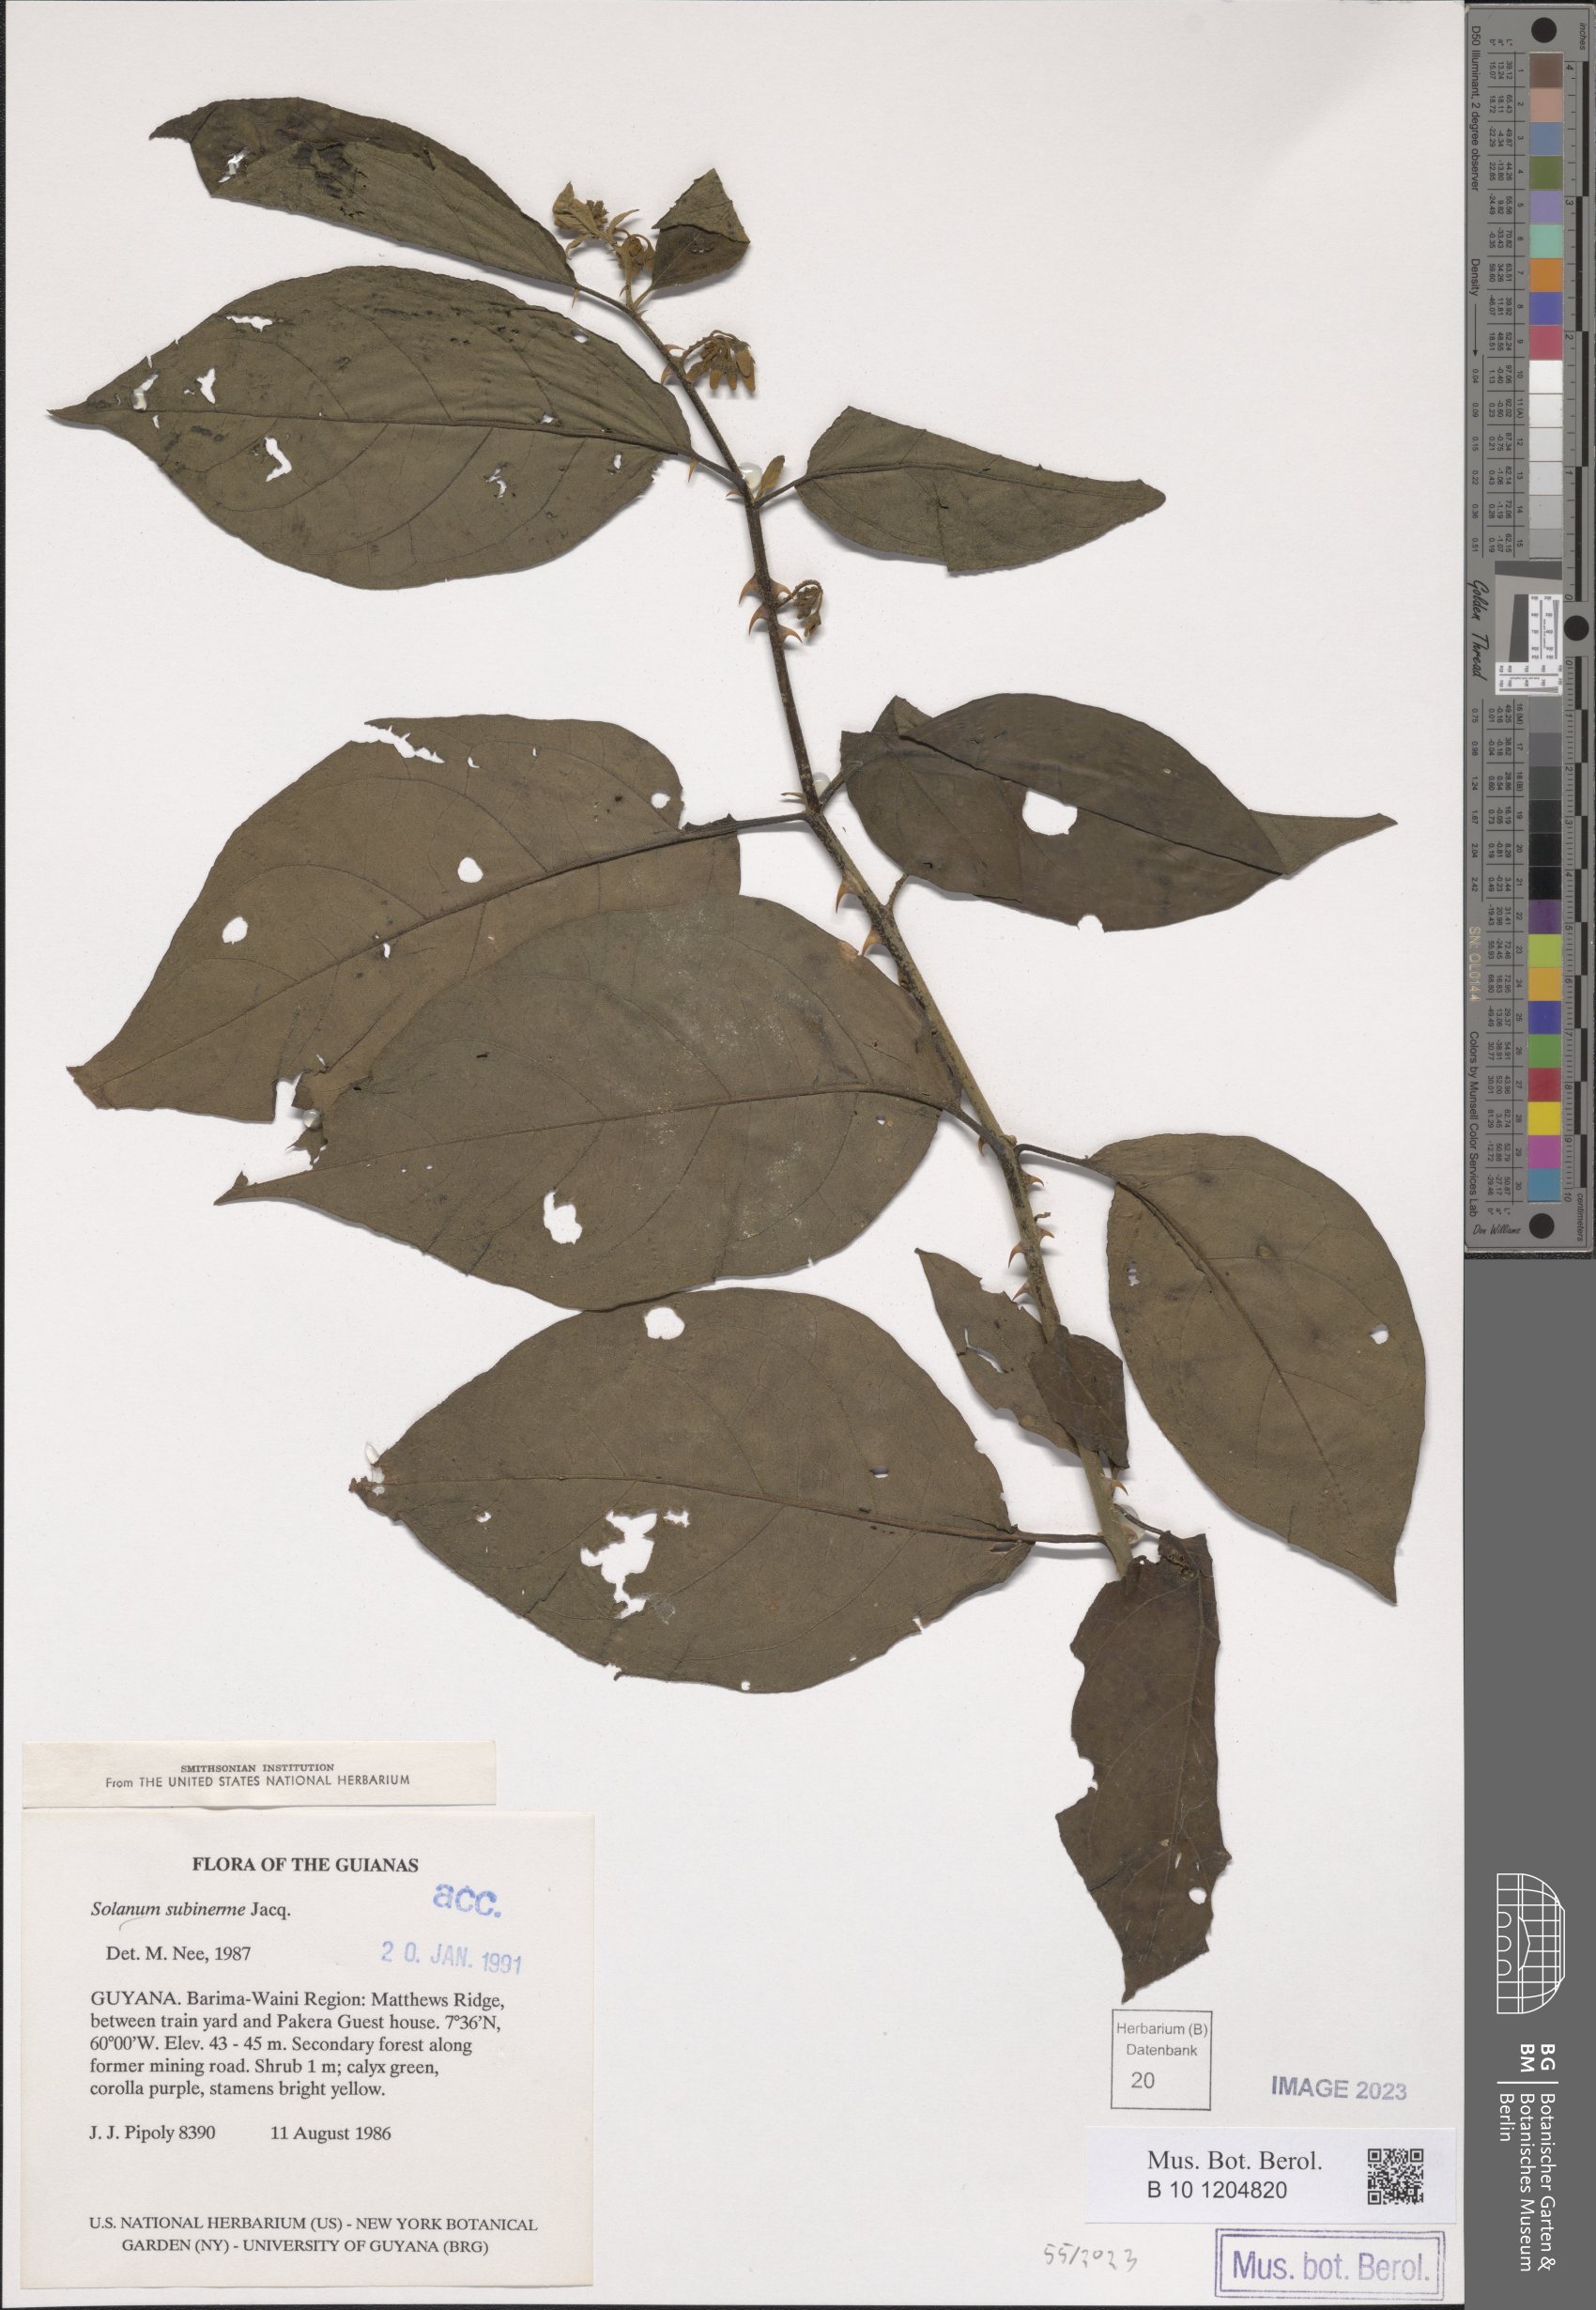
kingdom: Plantae
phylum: Tracheophyta
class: Magnoliopsida
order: Solanales
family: Solanaceae
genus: Solanum
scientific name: Solanum subinerme
